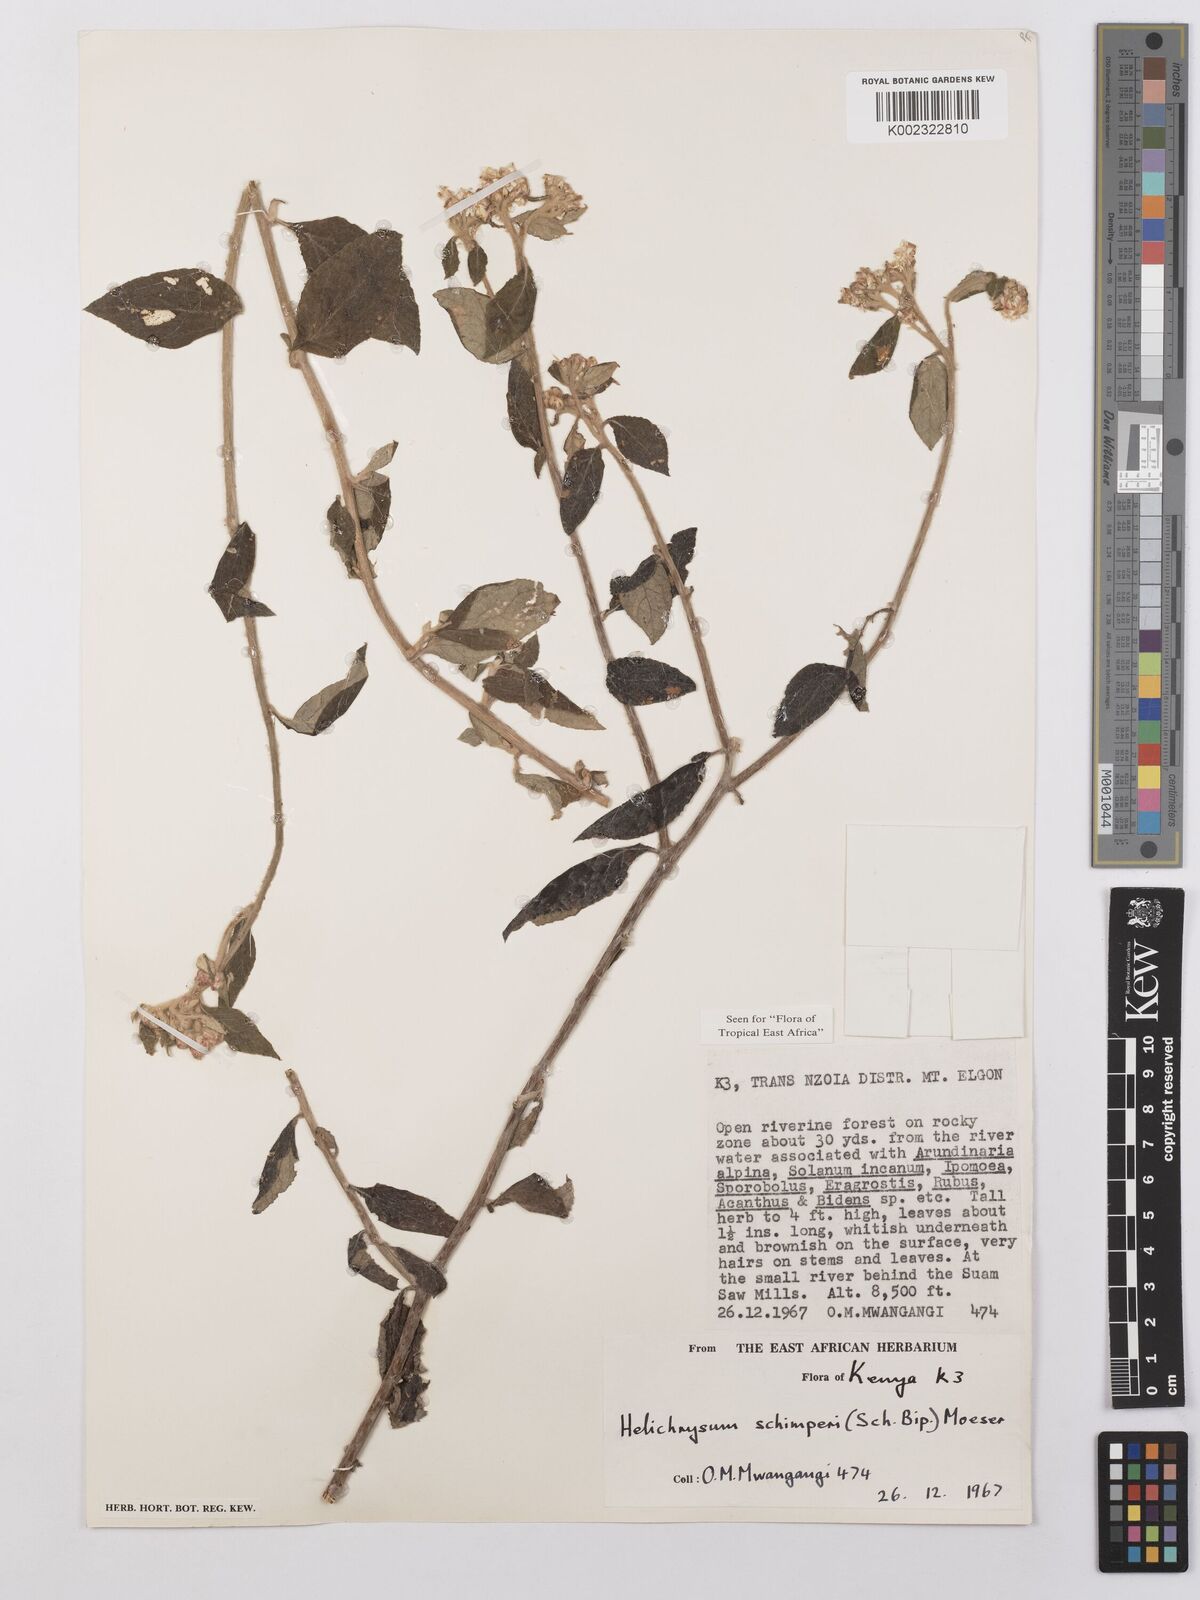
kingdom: Plantae
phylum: Tracheophyta
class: Magnoliopsida
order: Asterales
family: Asteraceae
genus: Helichrysum
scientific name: Helichrysum schimperi
